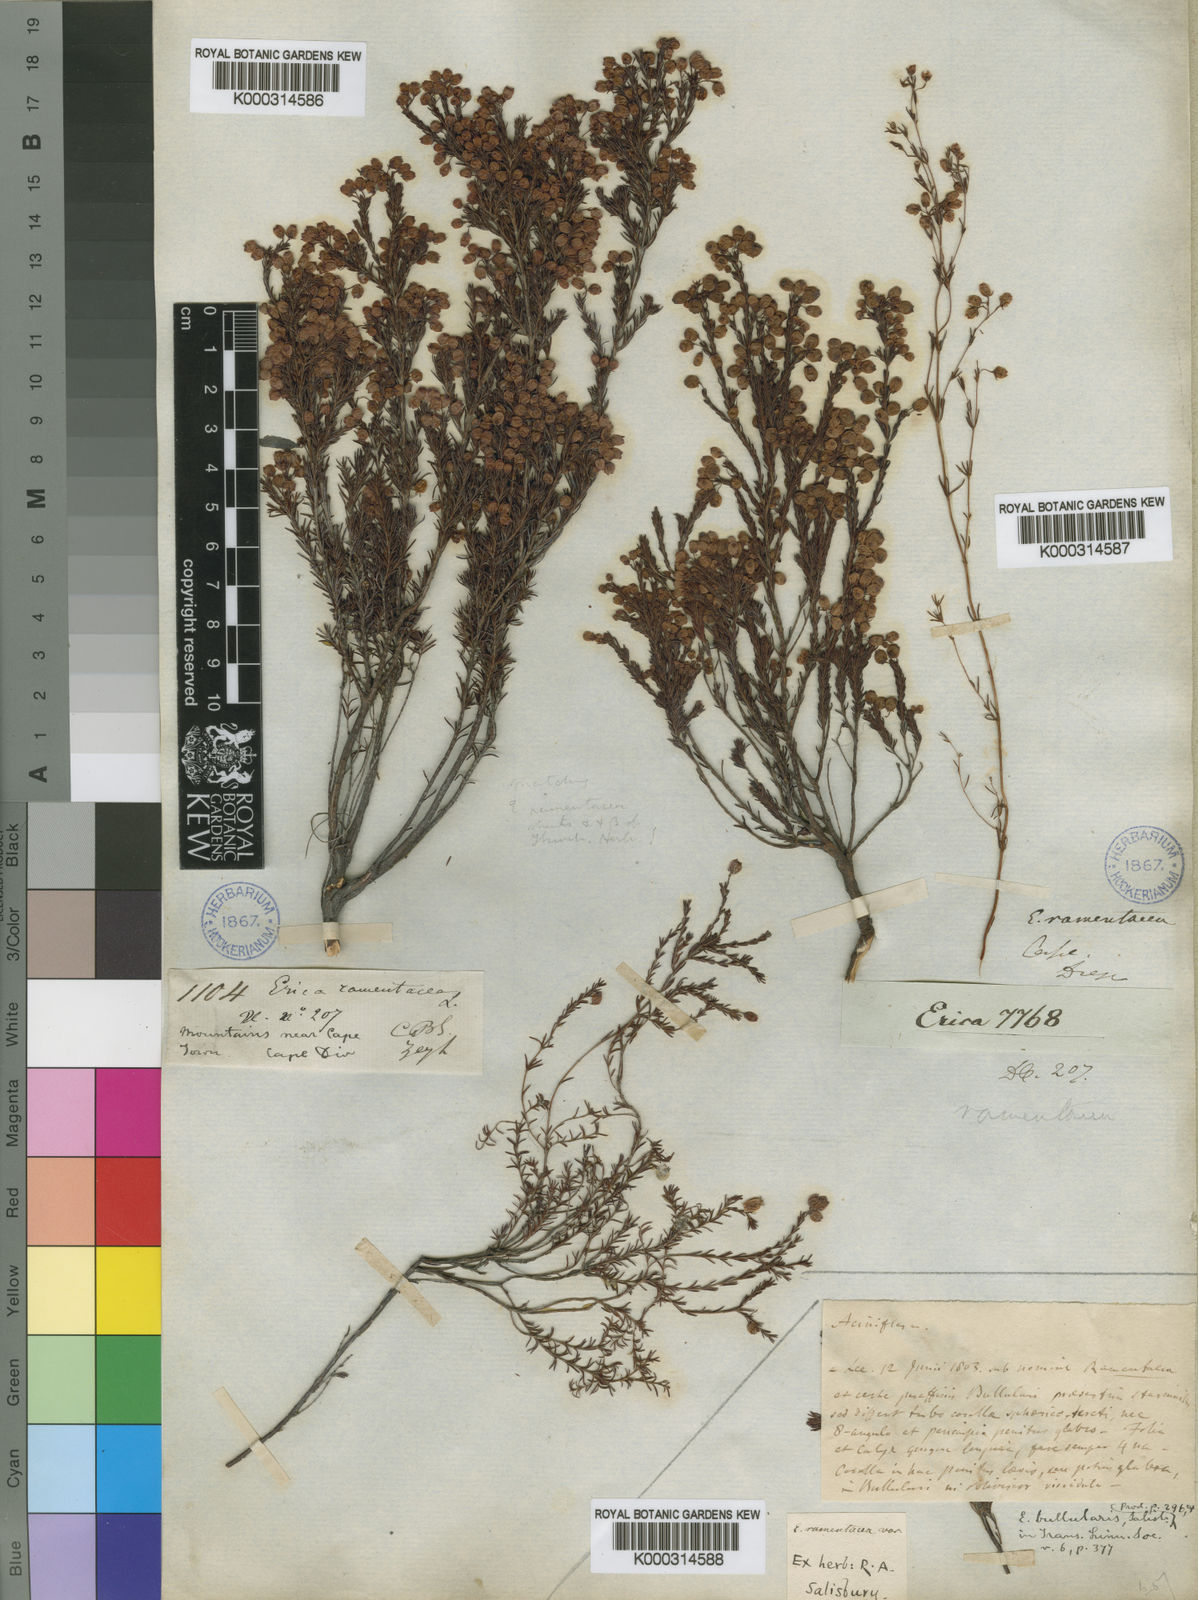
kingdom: Plantae
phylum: Tracheophyta
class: Magnoliopsida
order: Ericales
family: Ericaceae
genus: Erica
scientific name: Erica
